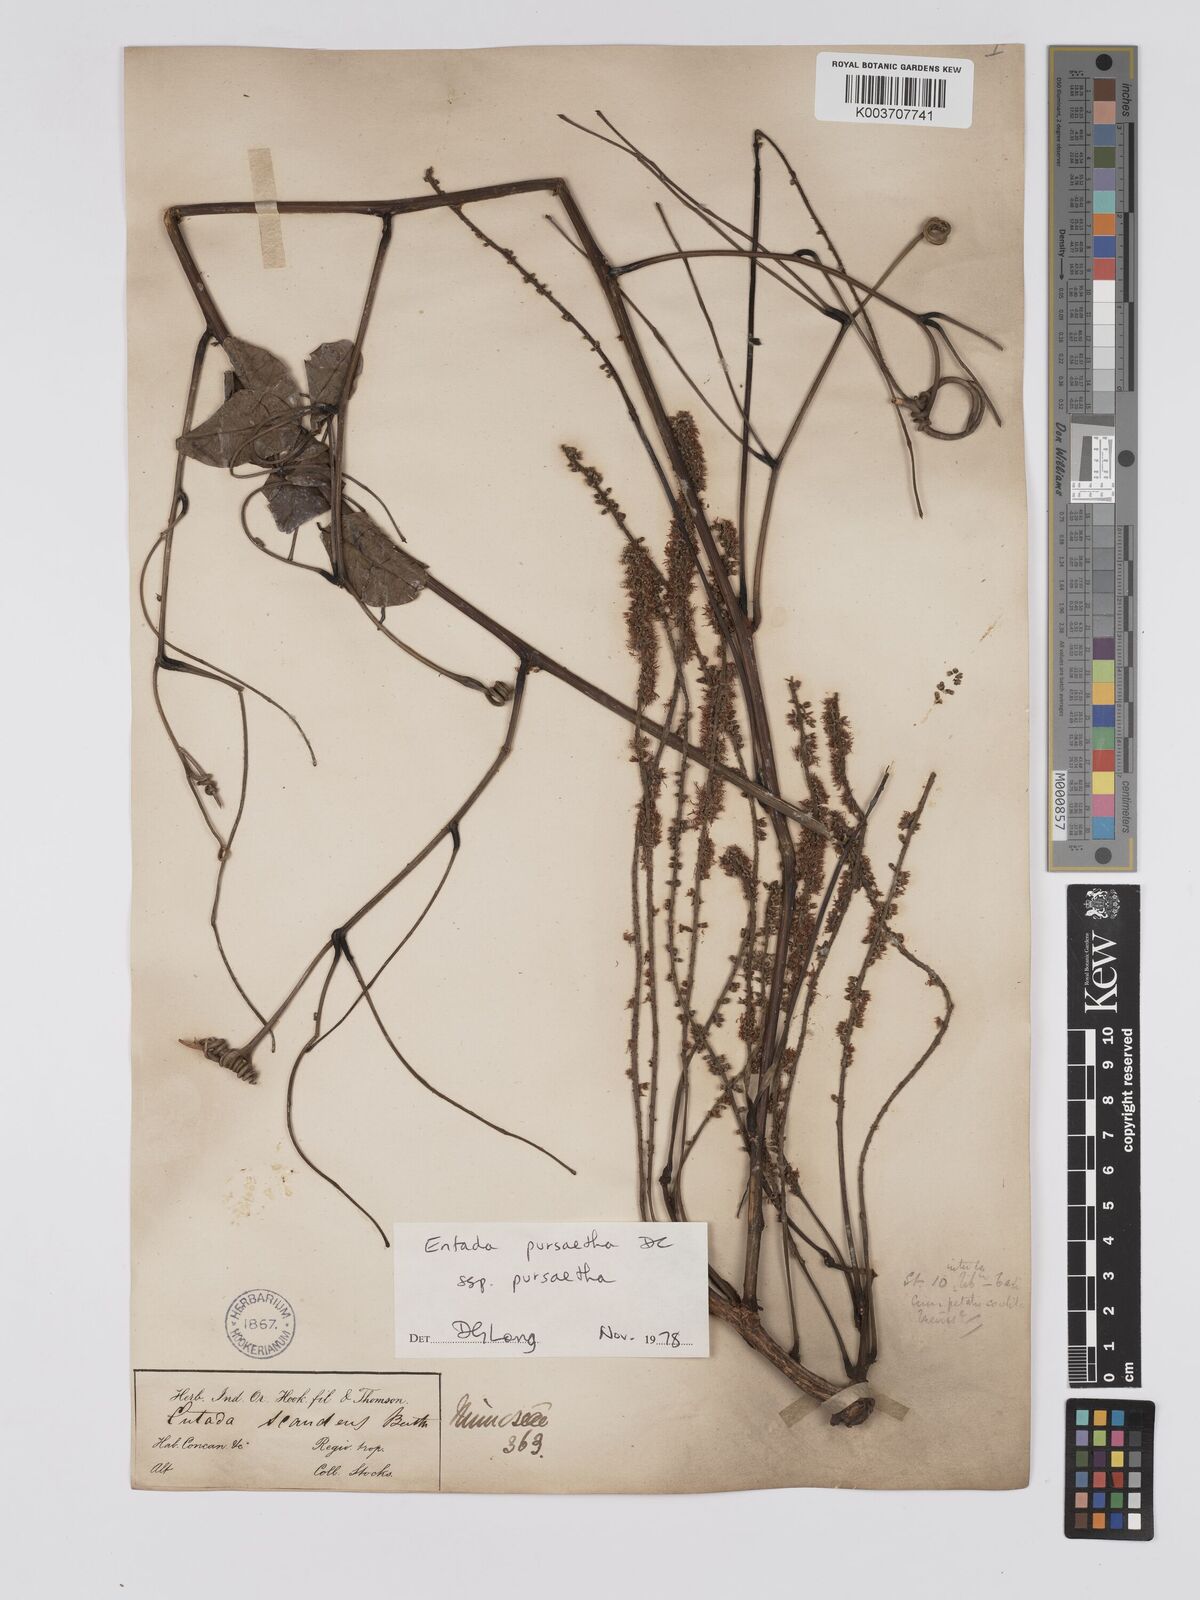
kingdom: Plantae
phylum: Tracheophyta
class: Magnoliopsida
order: Fabales
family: Fabaceae
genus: Entada
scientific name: Entada phaseoloides
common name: Matchbox-bean
